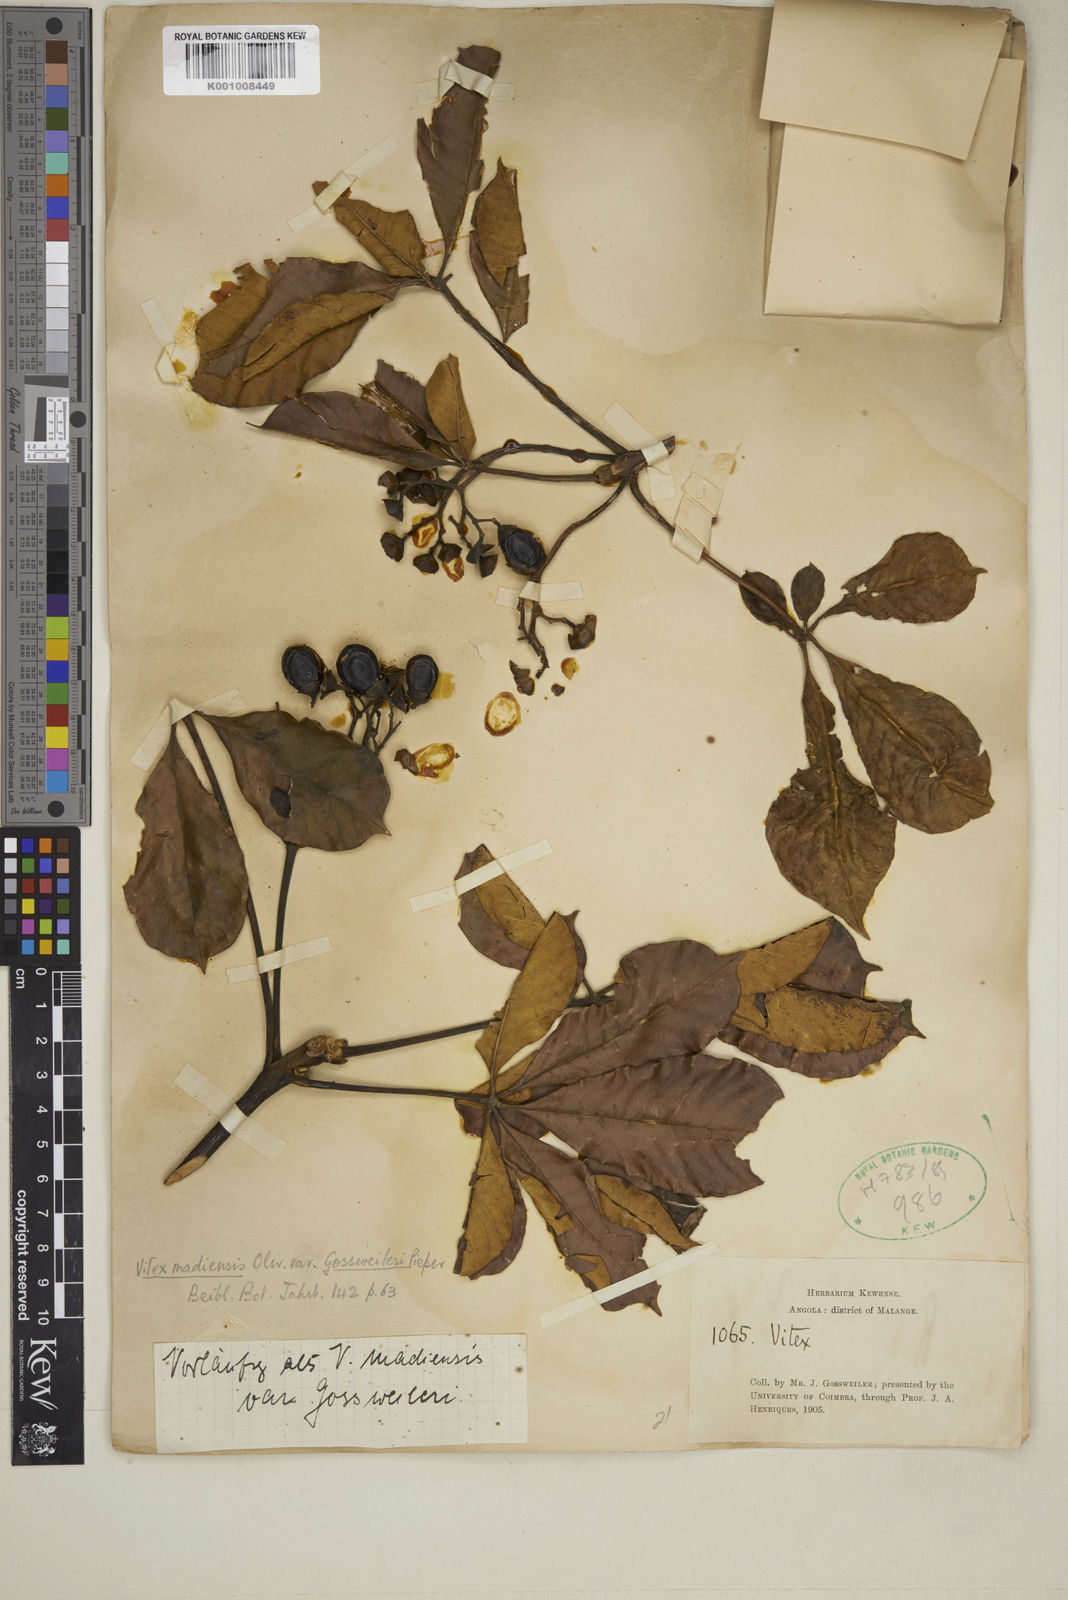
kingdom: Plantae
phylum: Tracheophyta
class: Magnoliopsida
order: Lamiales
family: Lamiaceae
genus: Vitex
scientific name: Vitex madiensis
